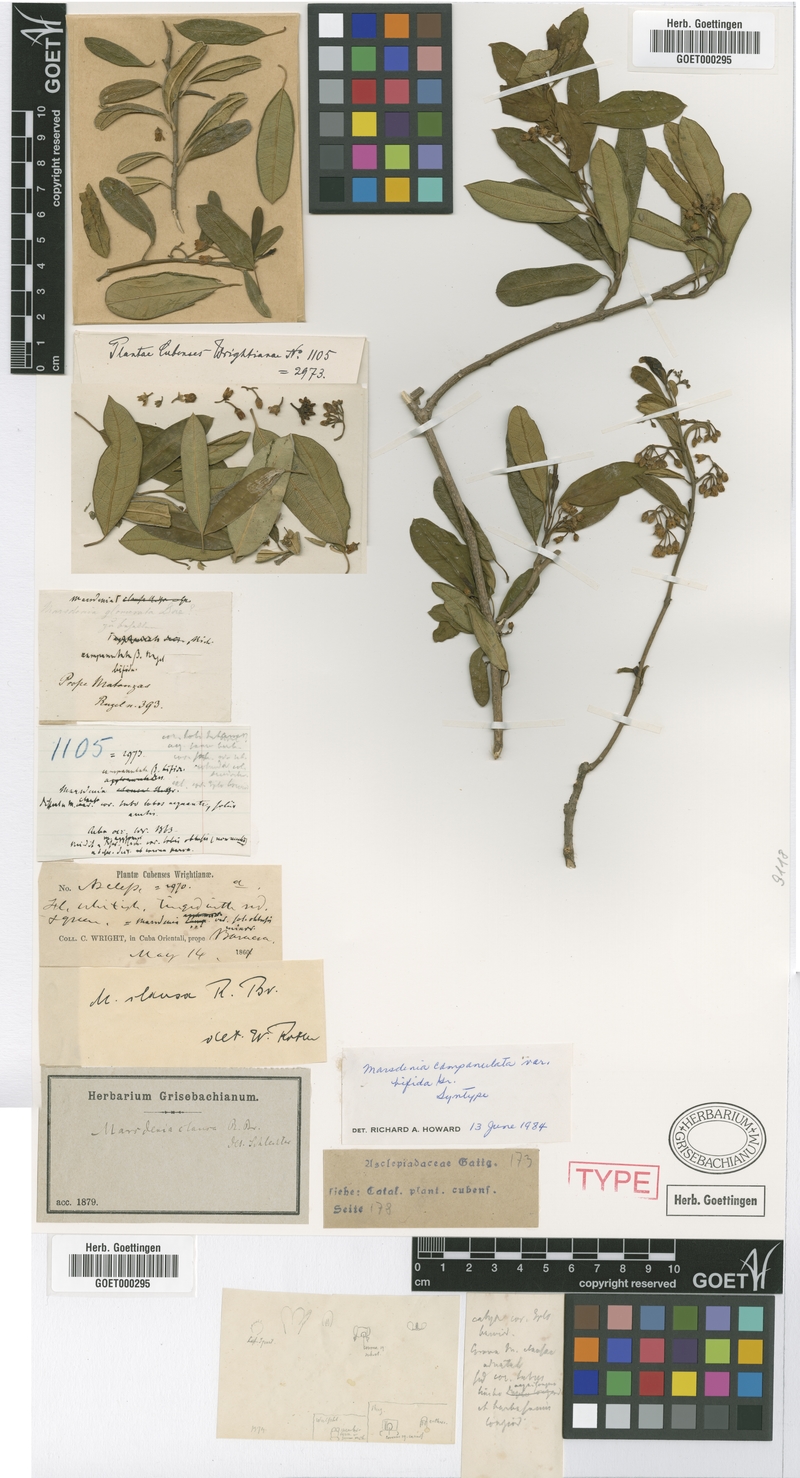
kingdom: Plantae
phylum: Tracheophyta
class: Magnoliopsida
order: Gentianales
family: Apocynaceae
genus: Ruehssia
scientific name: Ruehssia clausa
